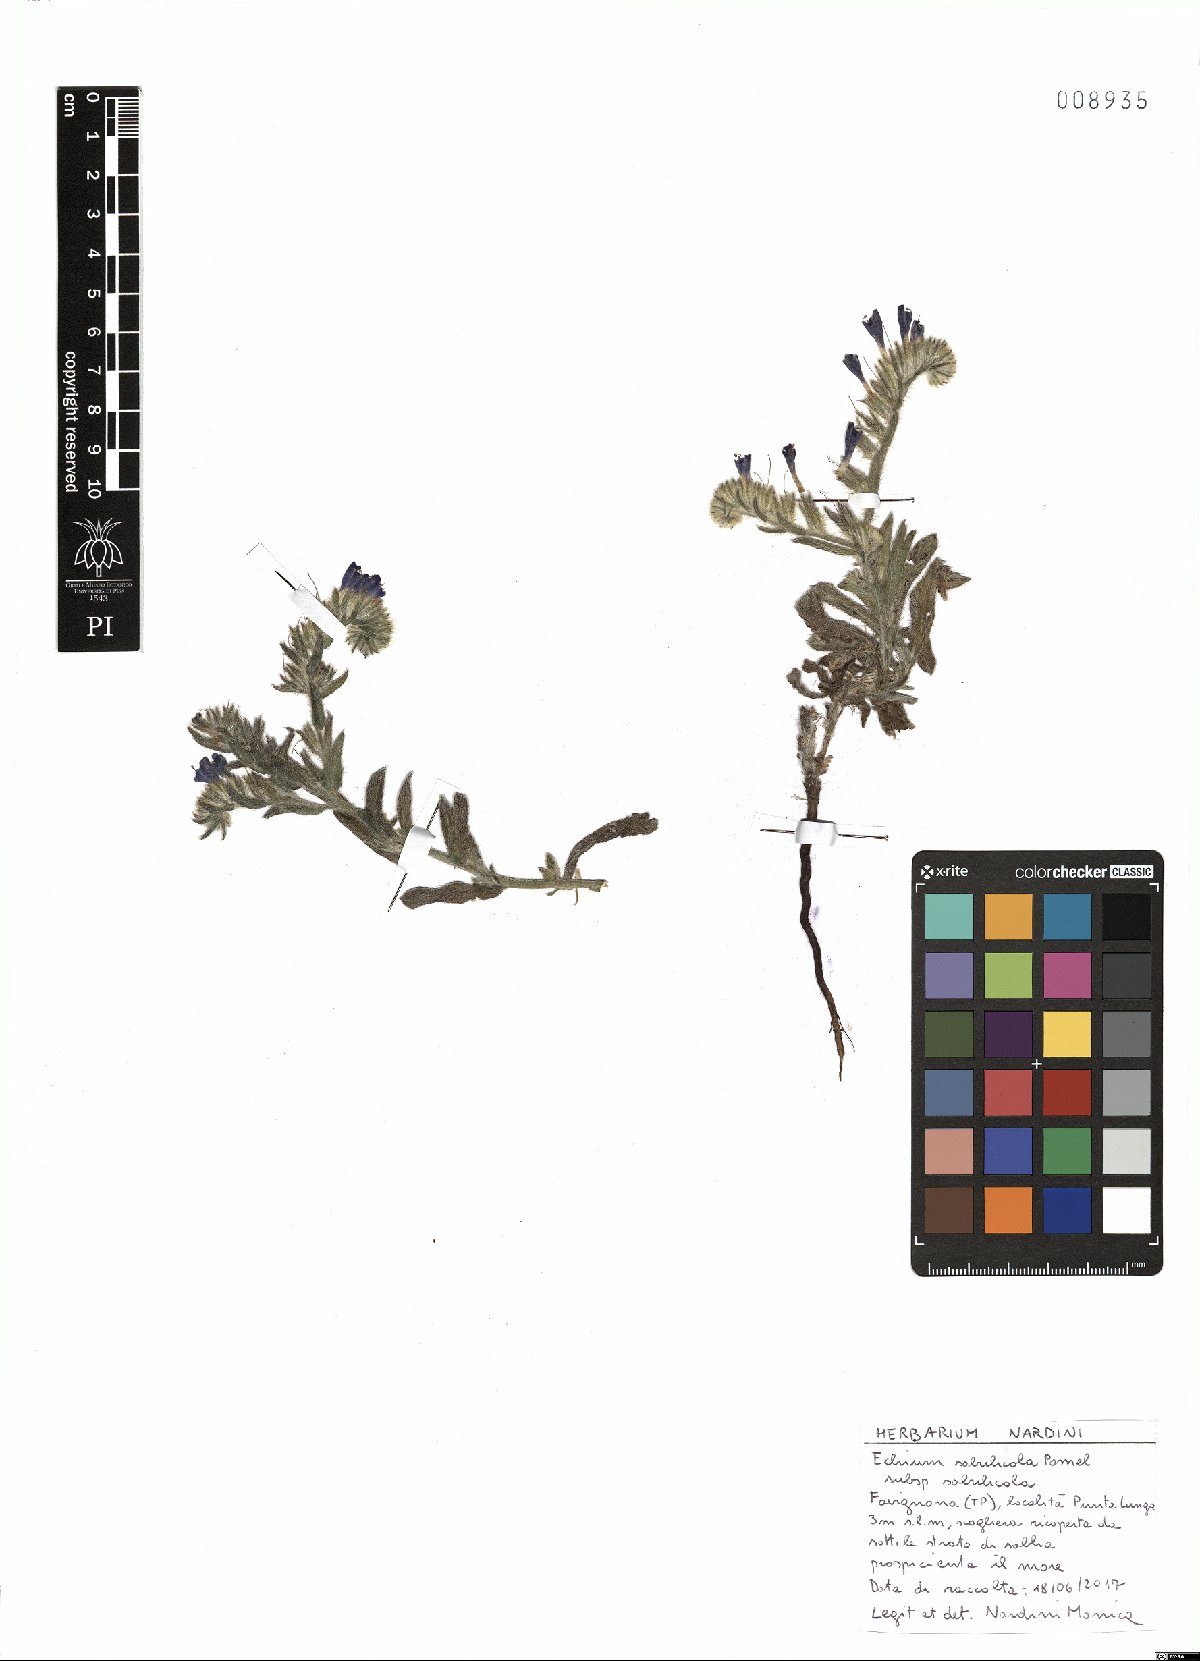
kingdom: Plantae
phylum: Tracheophyta
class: Magnoliopsida
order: Boraginales
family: Boraginaceae
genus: Echium
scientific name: Echium sabulicola
